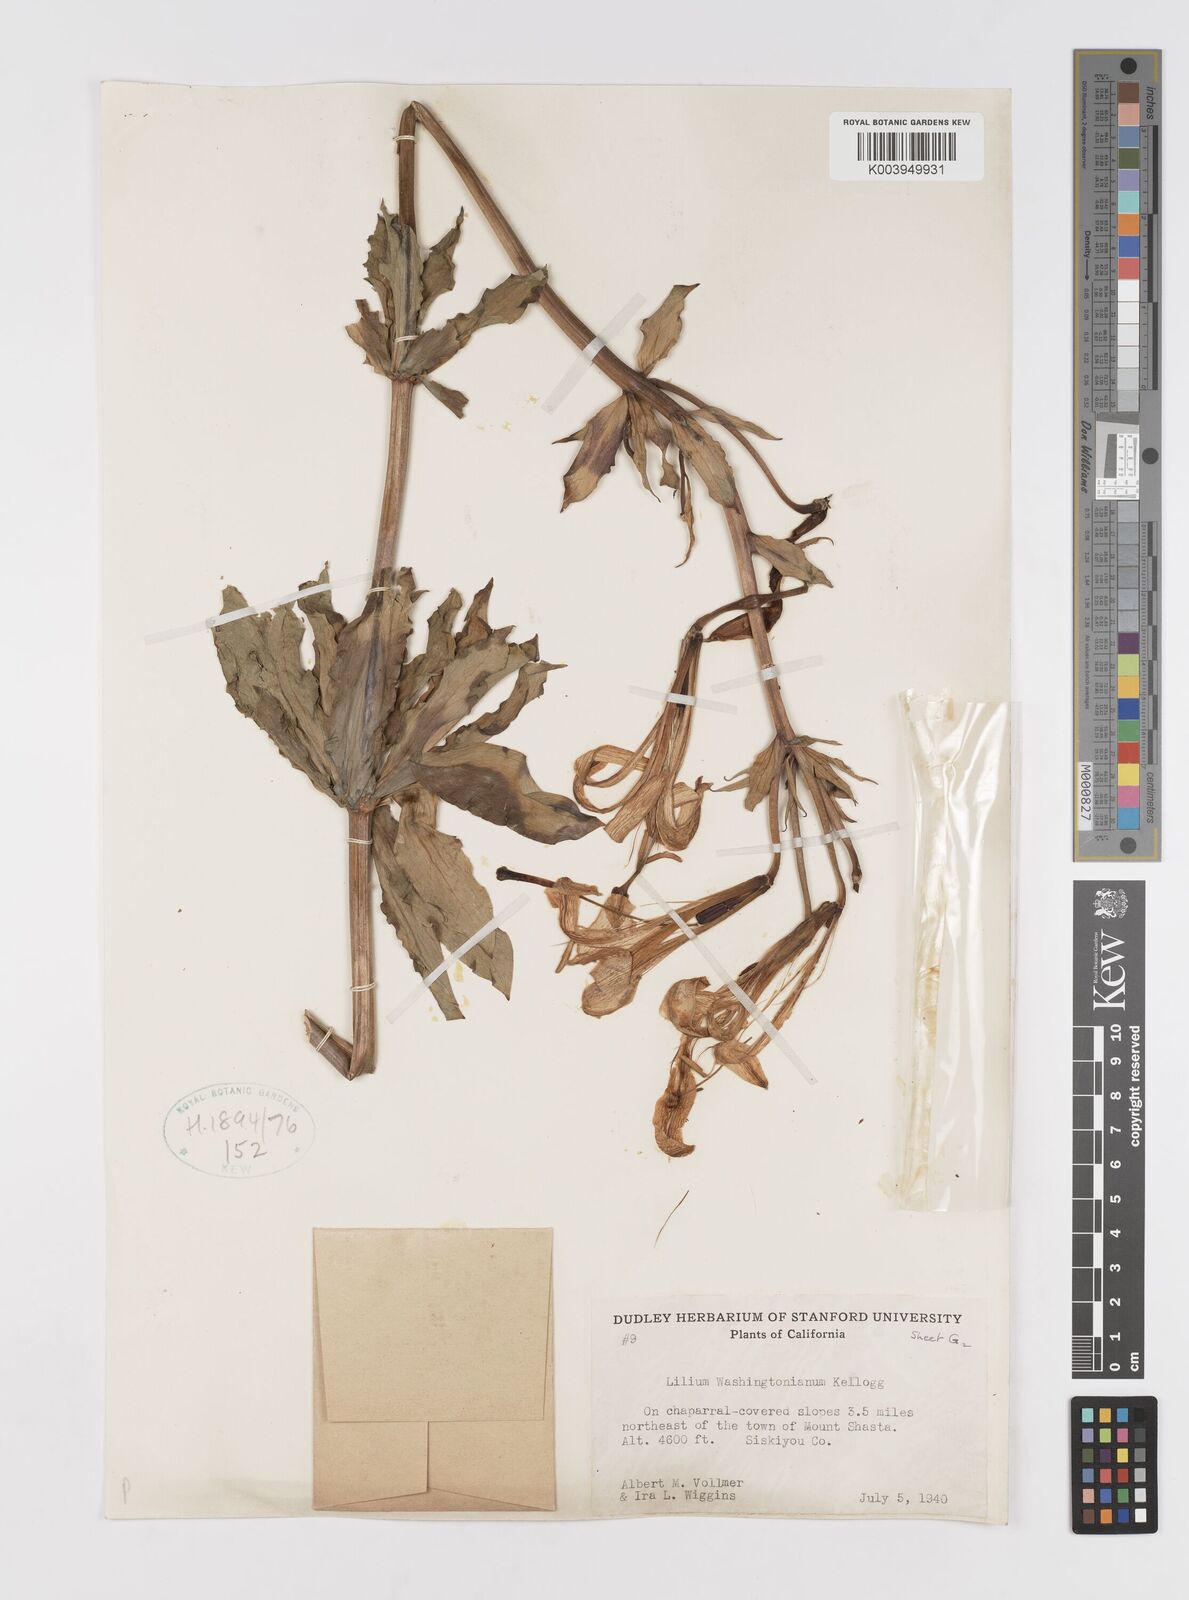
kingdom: Plantae
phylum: Tracheophyta
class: Liliopsida
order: Liliales
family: Liliaceae
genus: Lilium
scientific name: Lilium washingtonianum
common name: Washington lily
